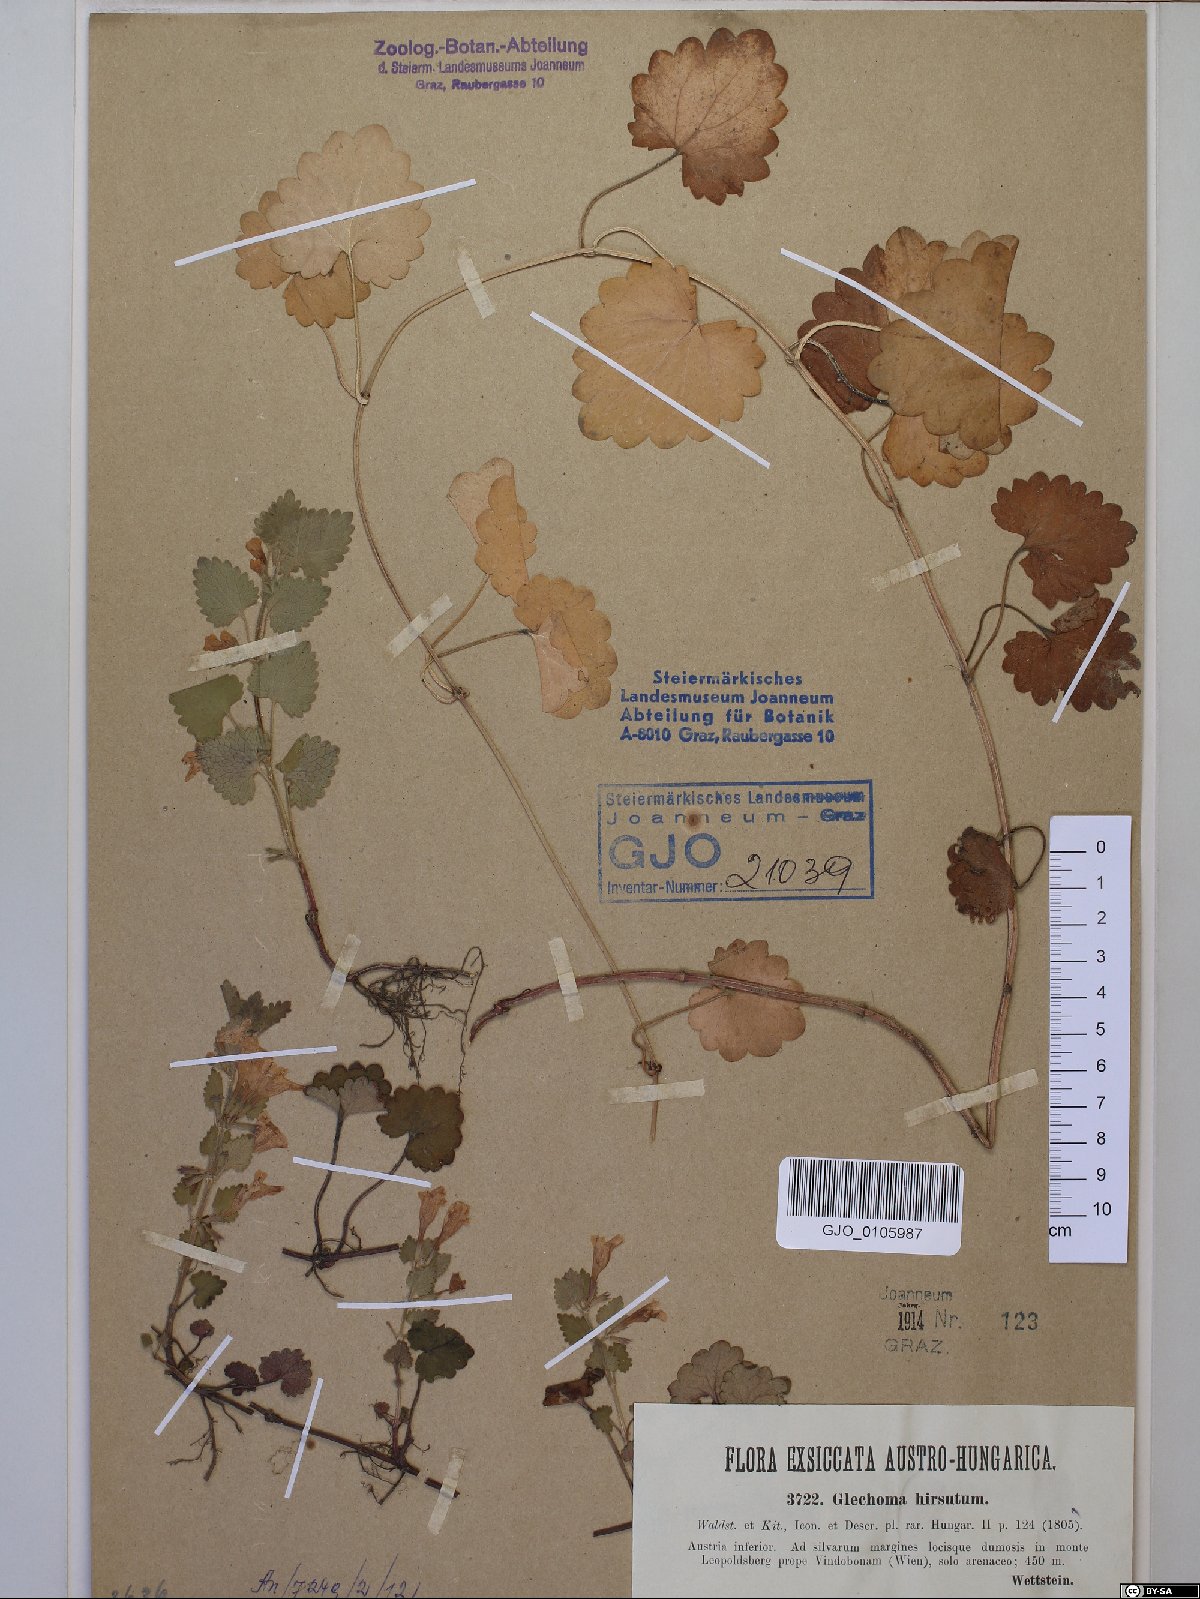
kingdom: Plantae
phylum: Tracheophyta
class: Magnoliopsida
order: Lamiales
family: Lamiaceae
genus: Glechoma
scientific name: Glechoma hirsuta
